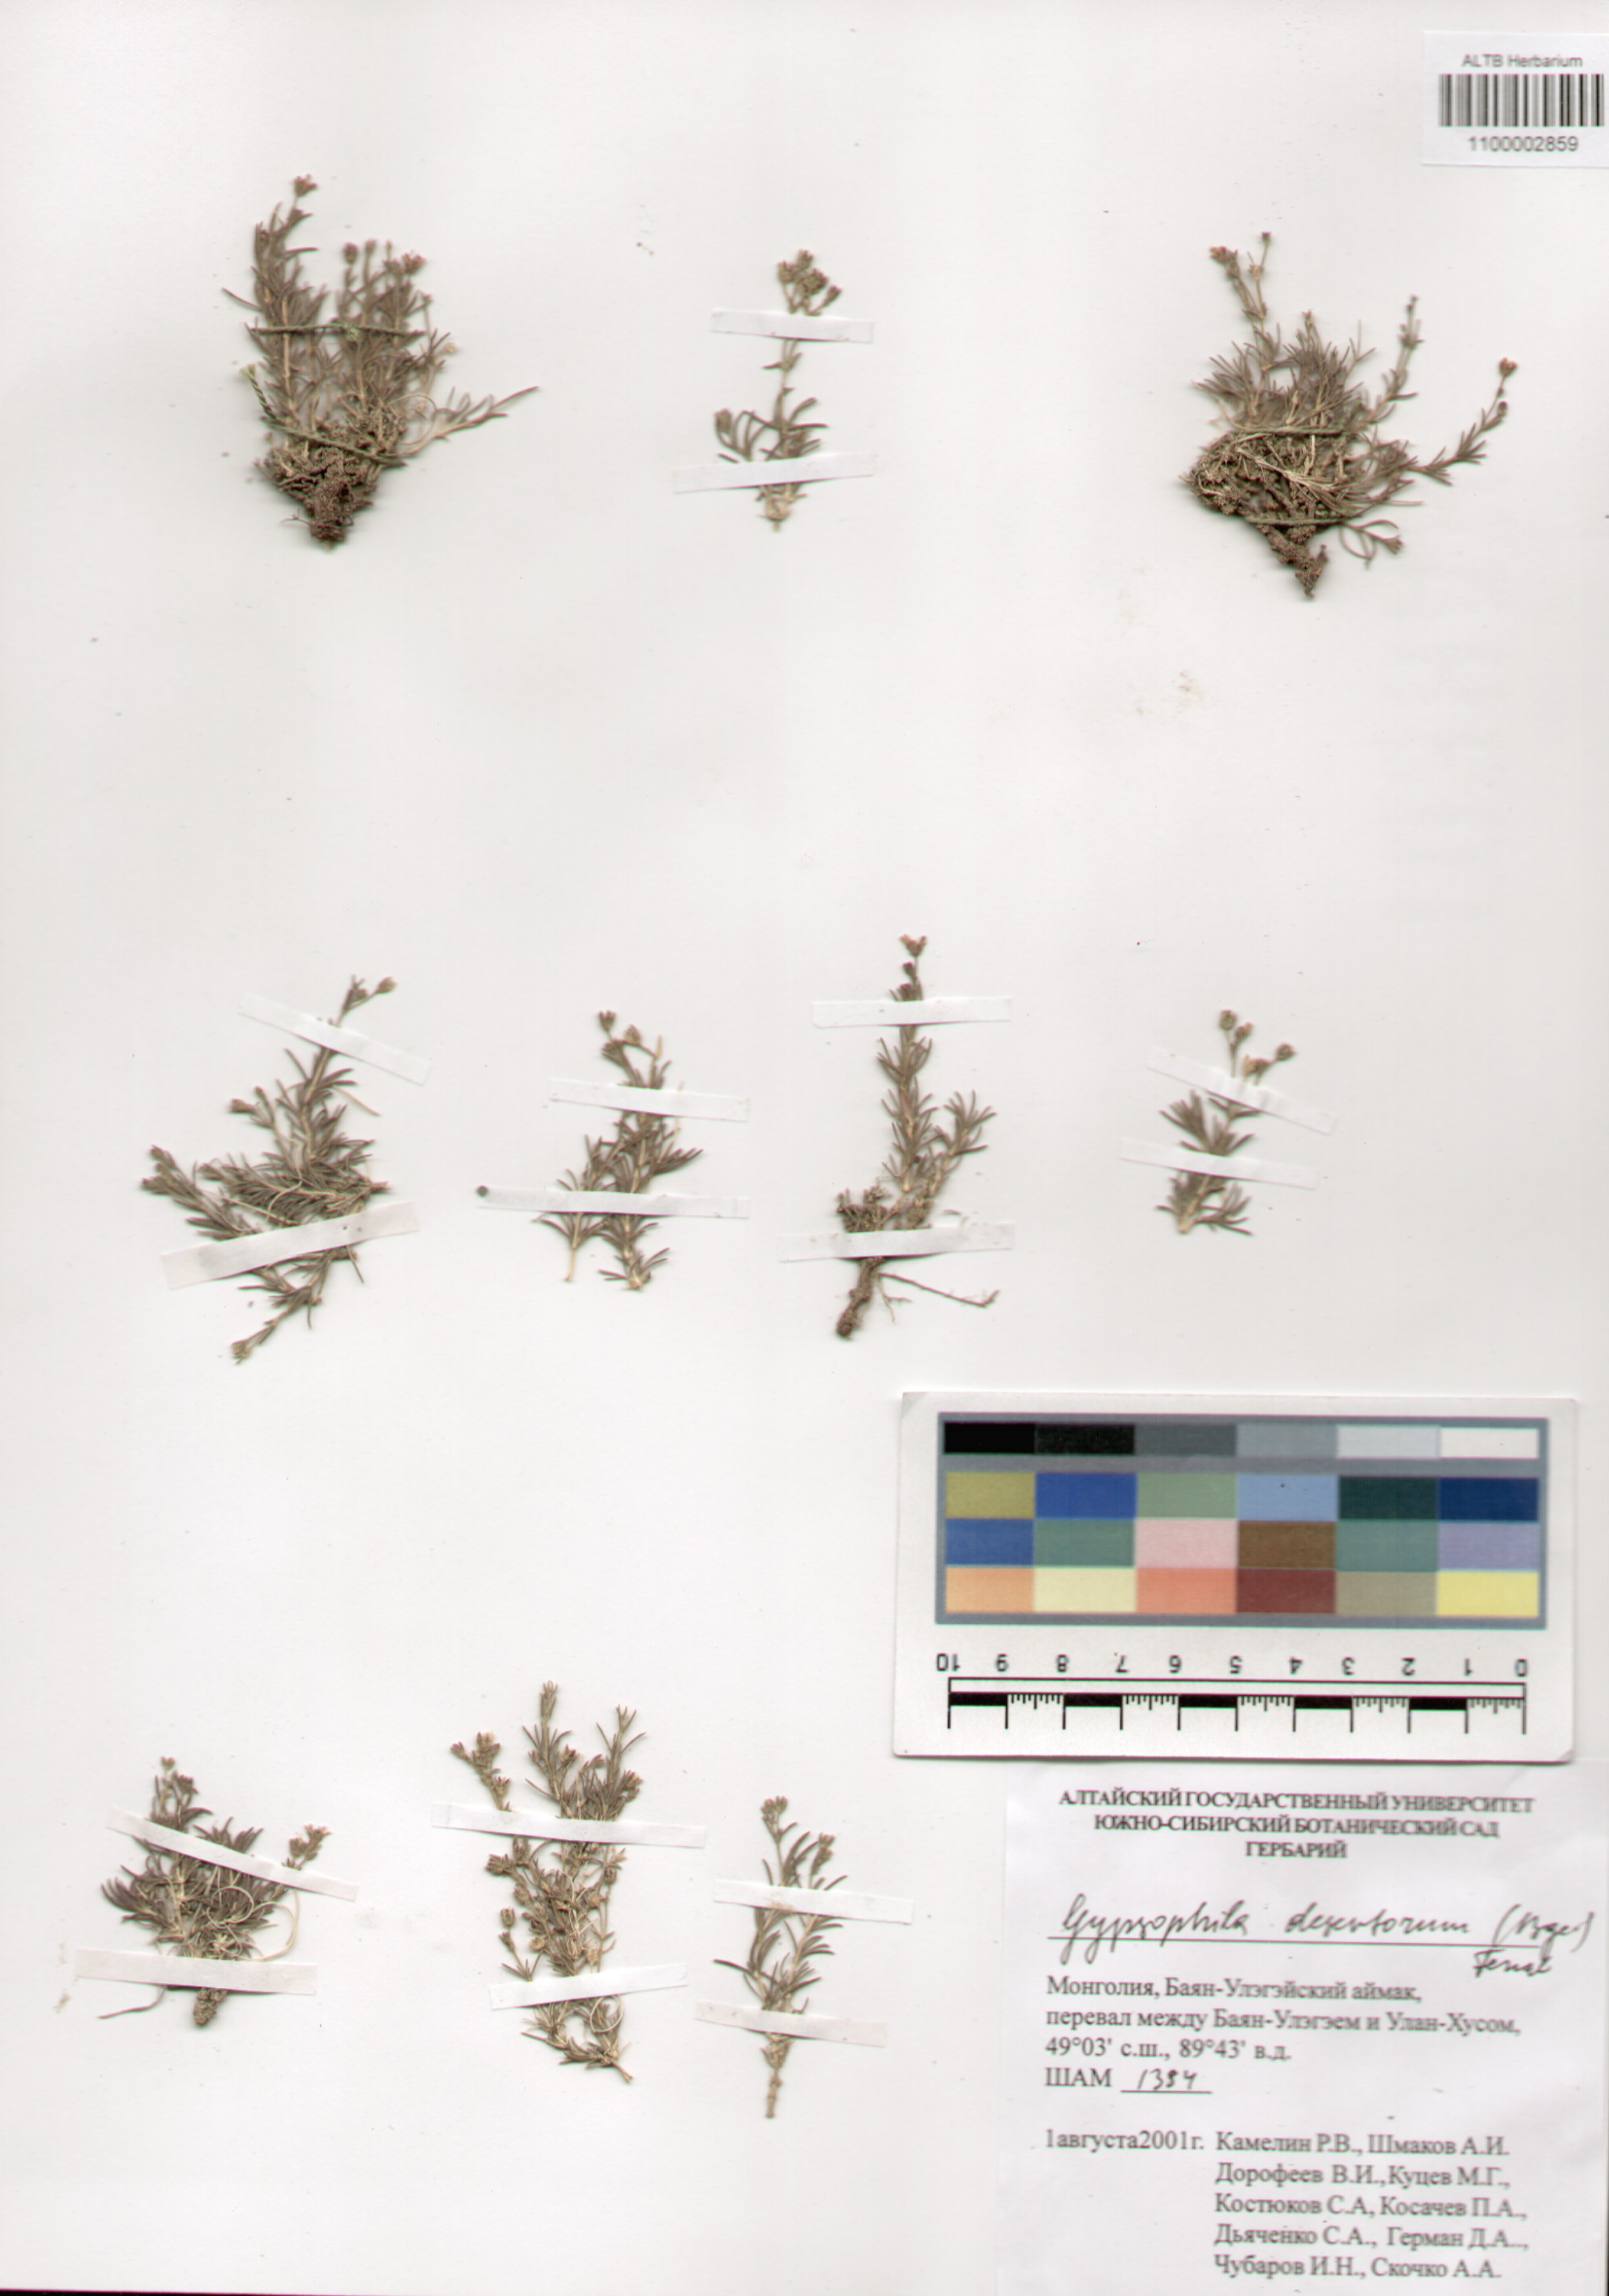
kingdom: Plantae
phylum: Tracheophyta
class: Magnoliopsida
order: Caryophyllales
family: Caryophyllaceae
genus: Heterochroa
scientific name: Heterochroa desertorum
